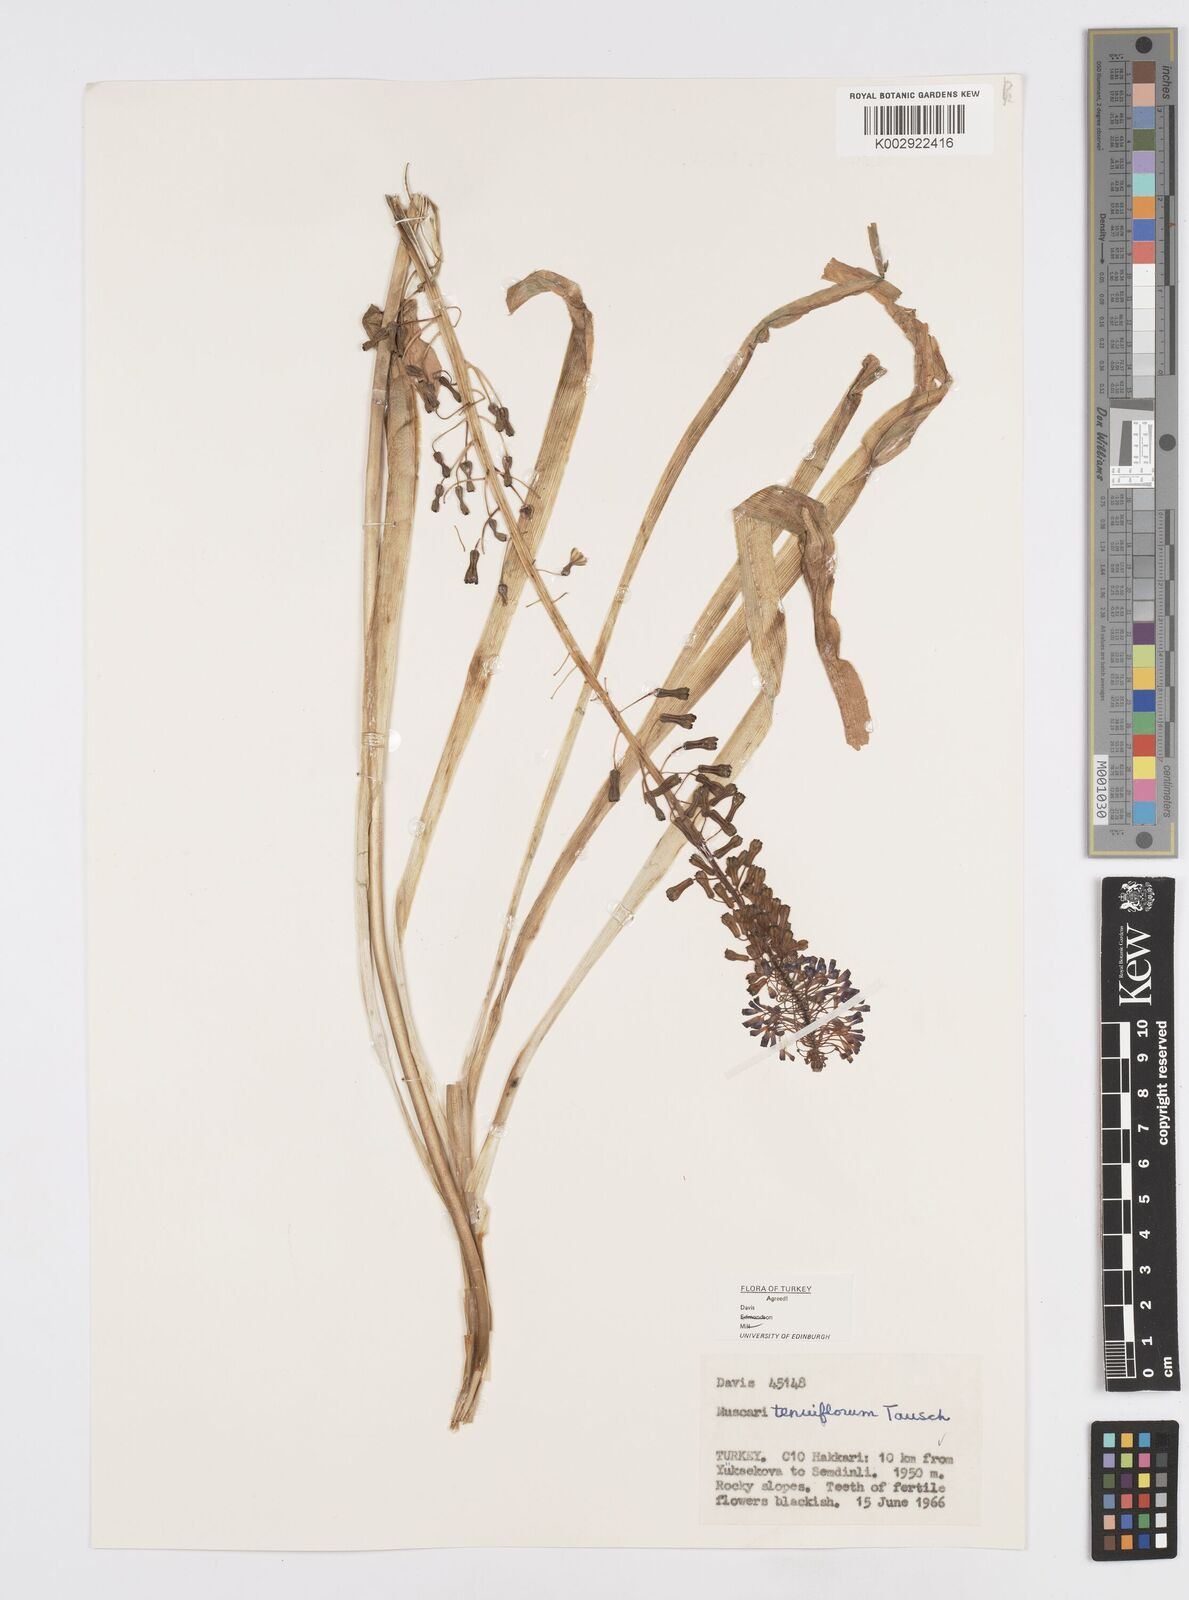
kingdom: Plantae
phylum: Tracheophyta
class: Liliopsida
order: Asparagales
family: Asparagaceae
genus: Muscari
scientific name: Muscari tenuiflorum
